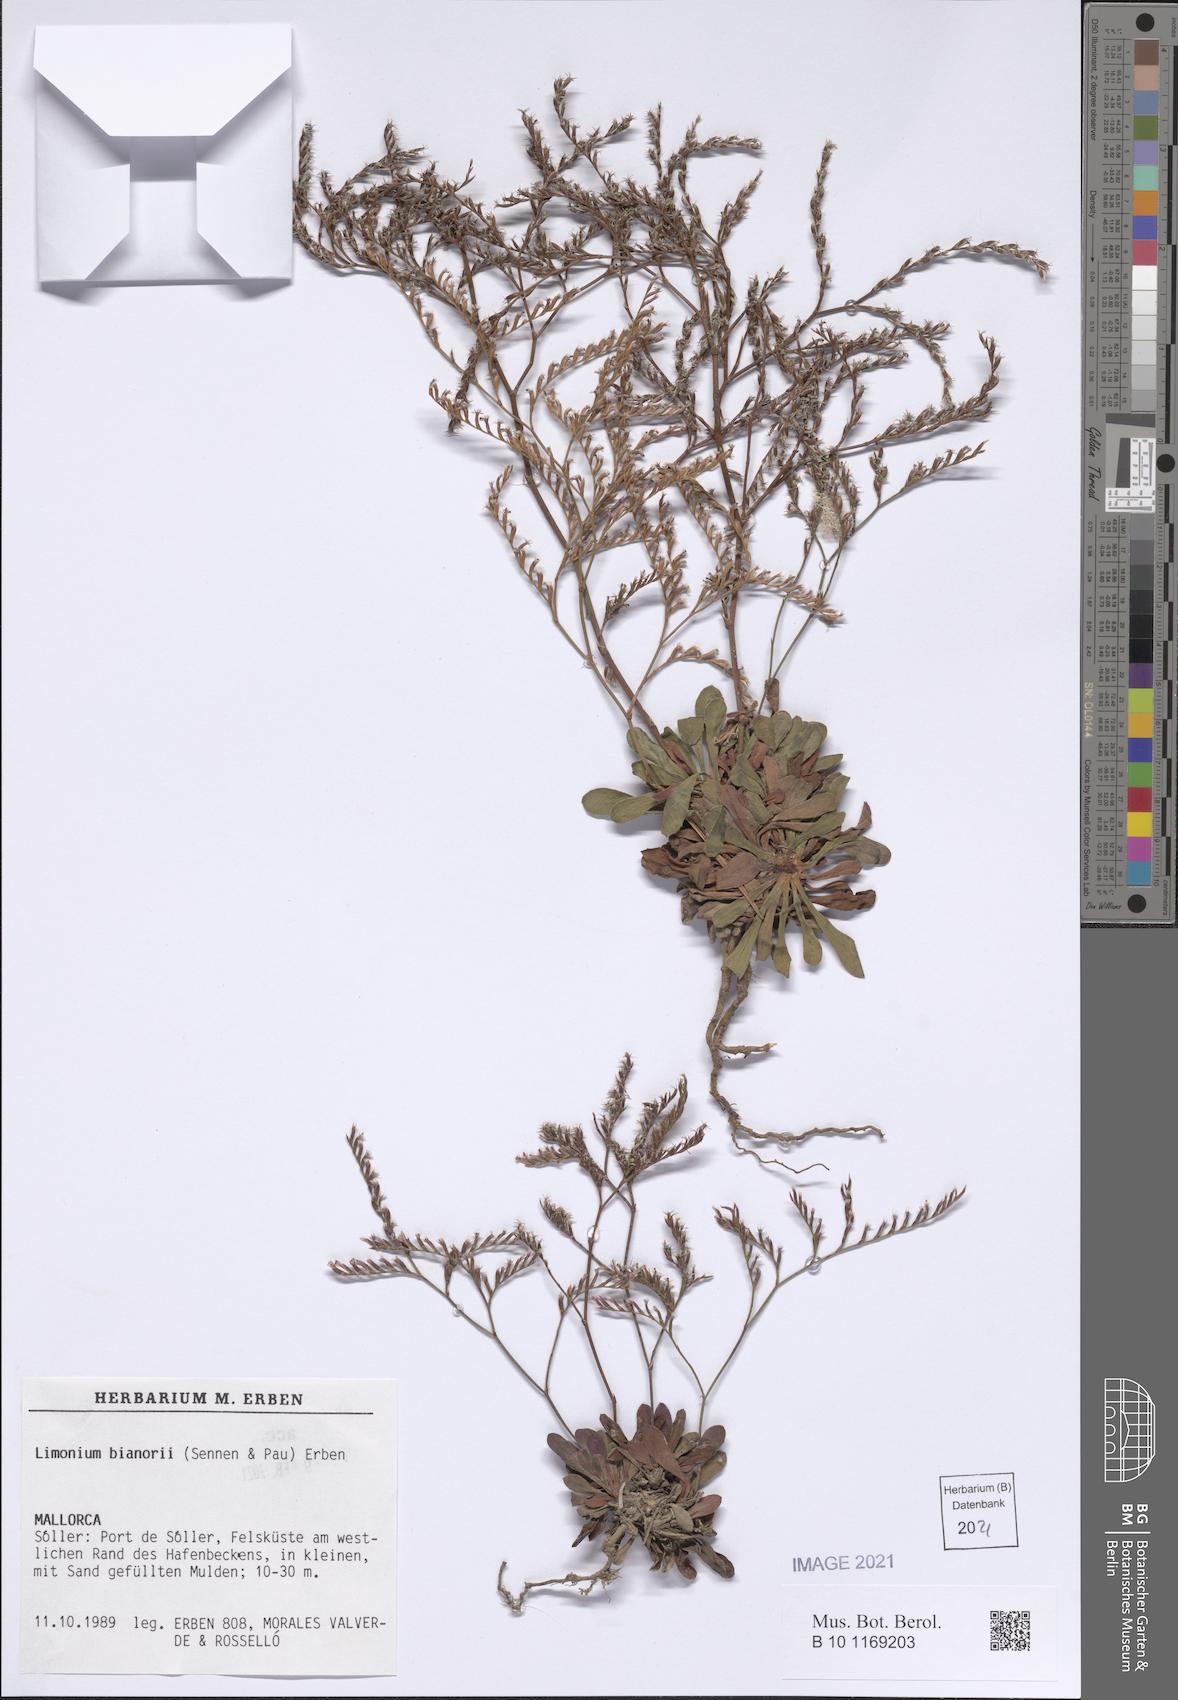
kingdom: Plantae
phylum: Tracheophyta
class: Magnoliopsida
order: Caryophyllales
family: Plumbaginaceae
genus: Limonium
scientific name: Limonium bianorii
